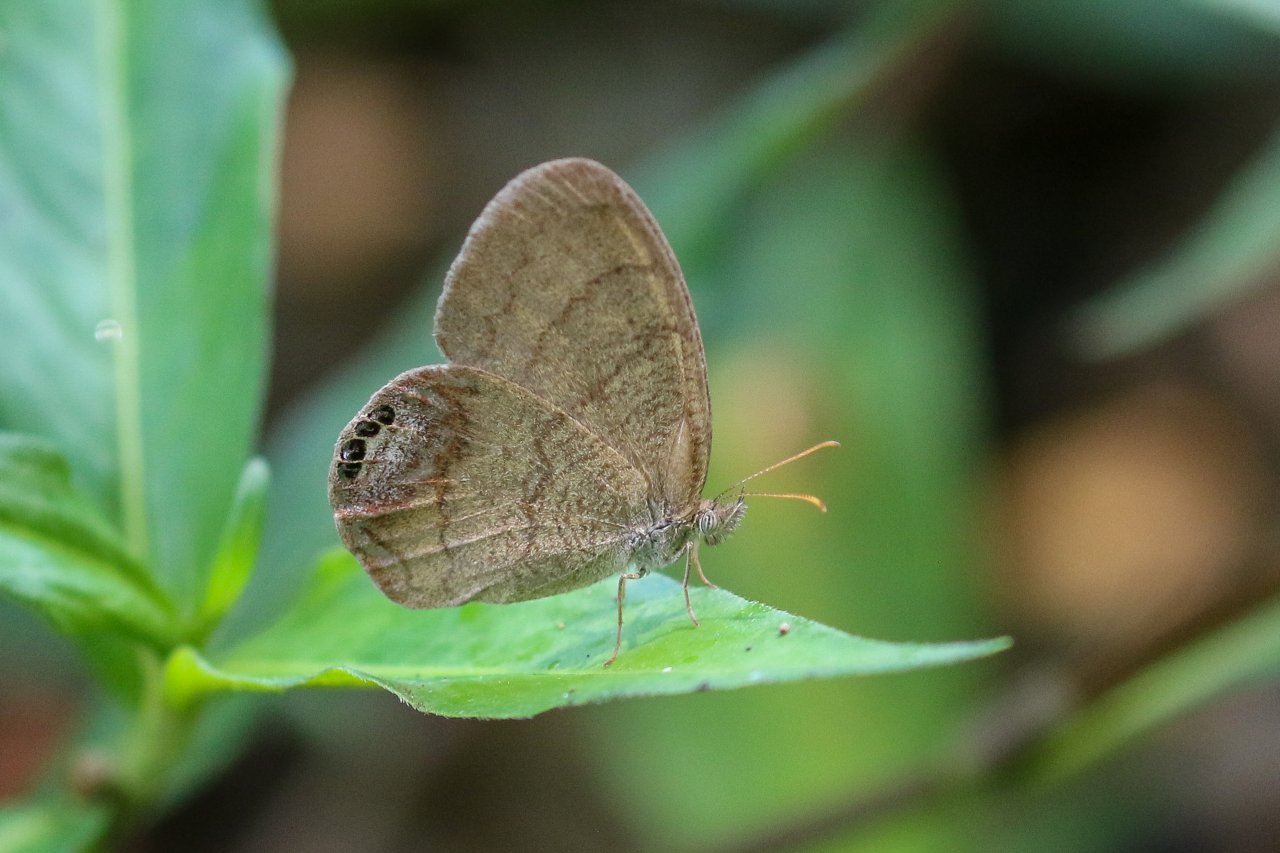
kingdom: Animalia
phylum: Arthropoda
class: Insecta
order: Lepidoptera
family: Nymphalidae
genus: Euptychia
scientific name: Euptychia cornelius
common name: Gemmed Satyr
